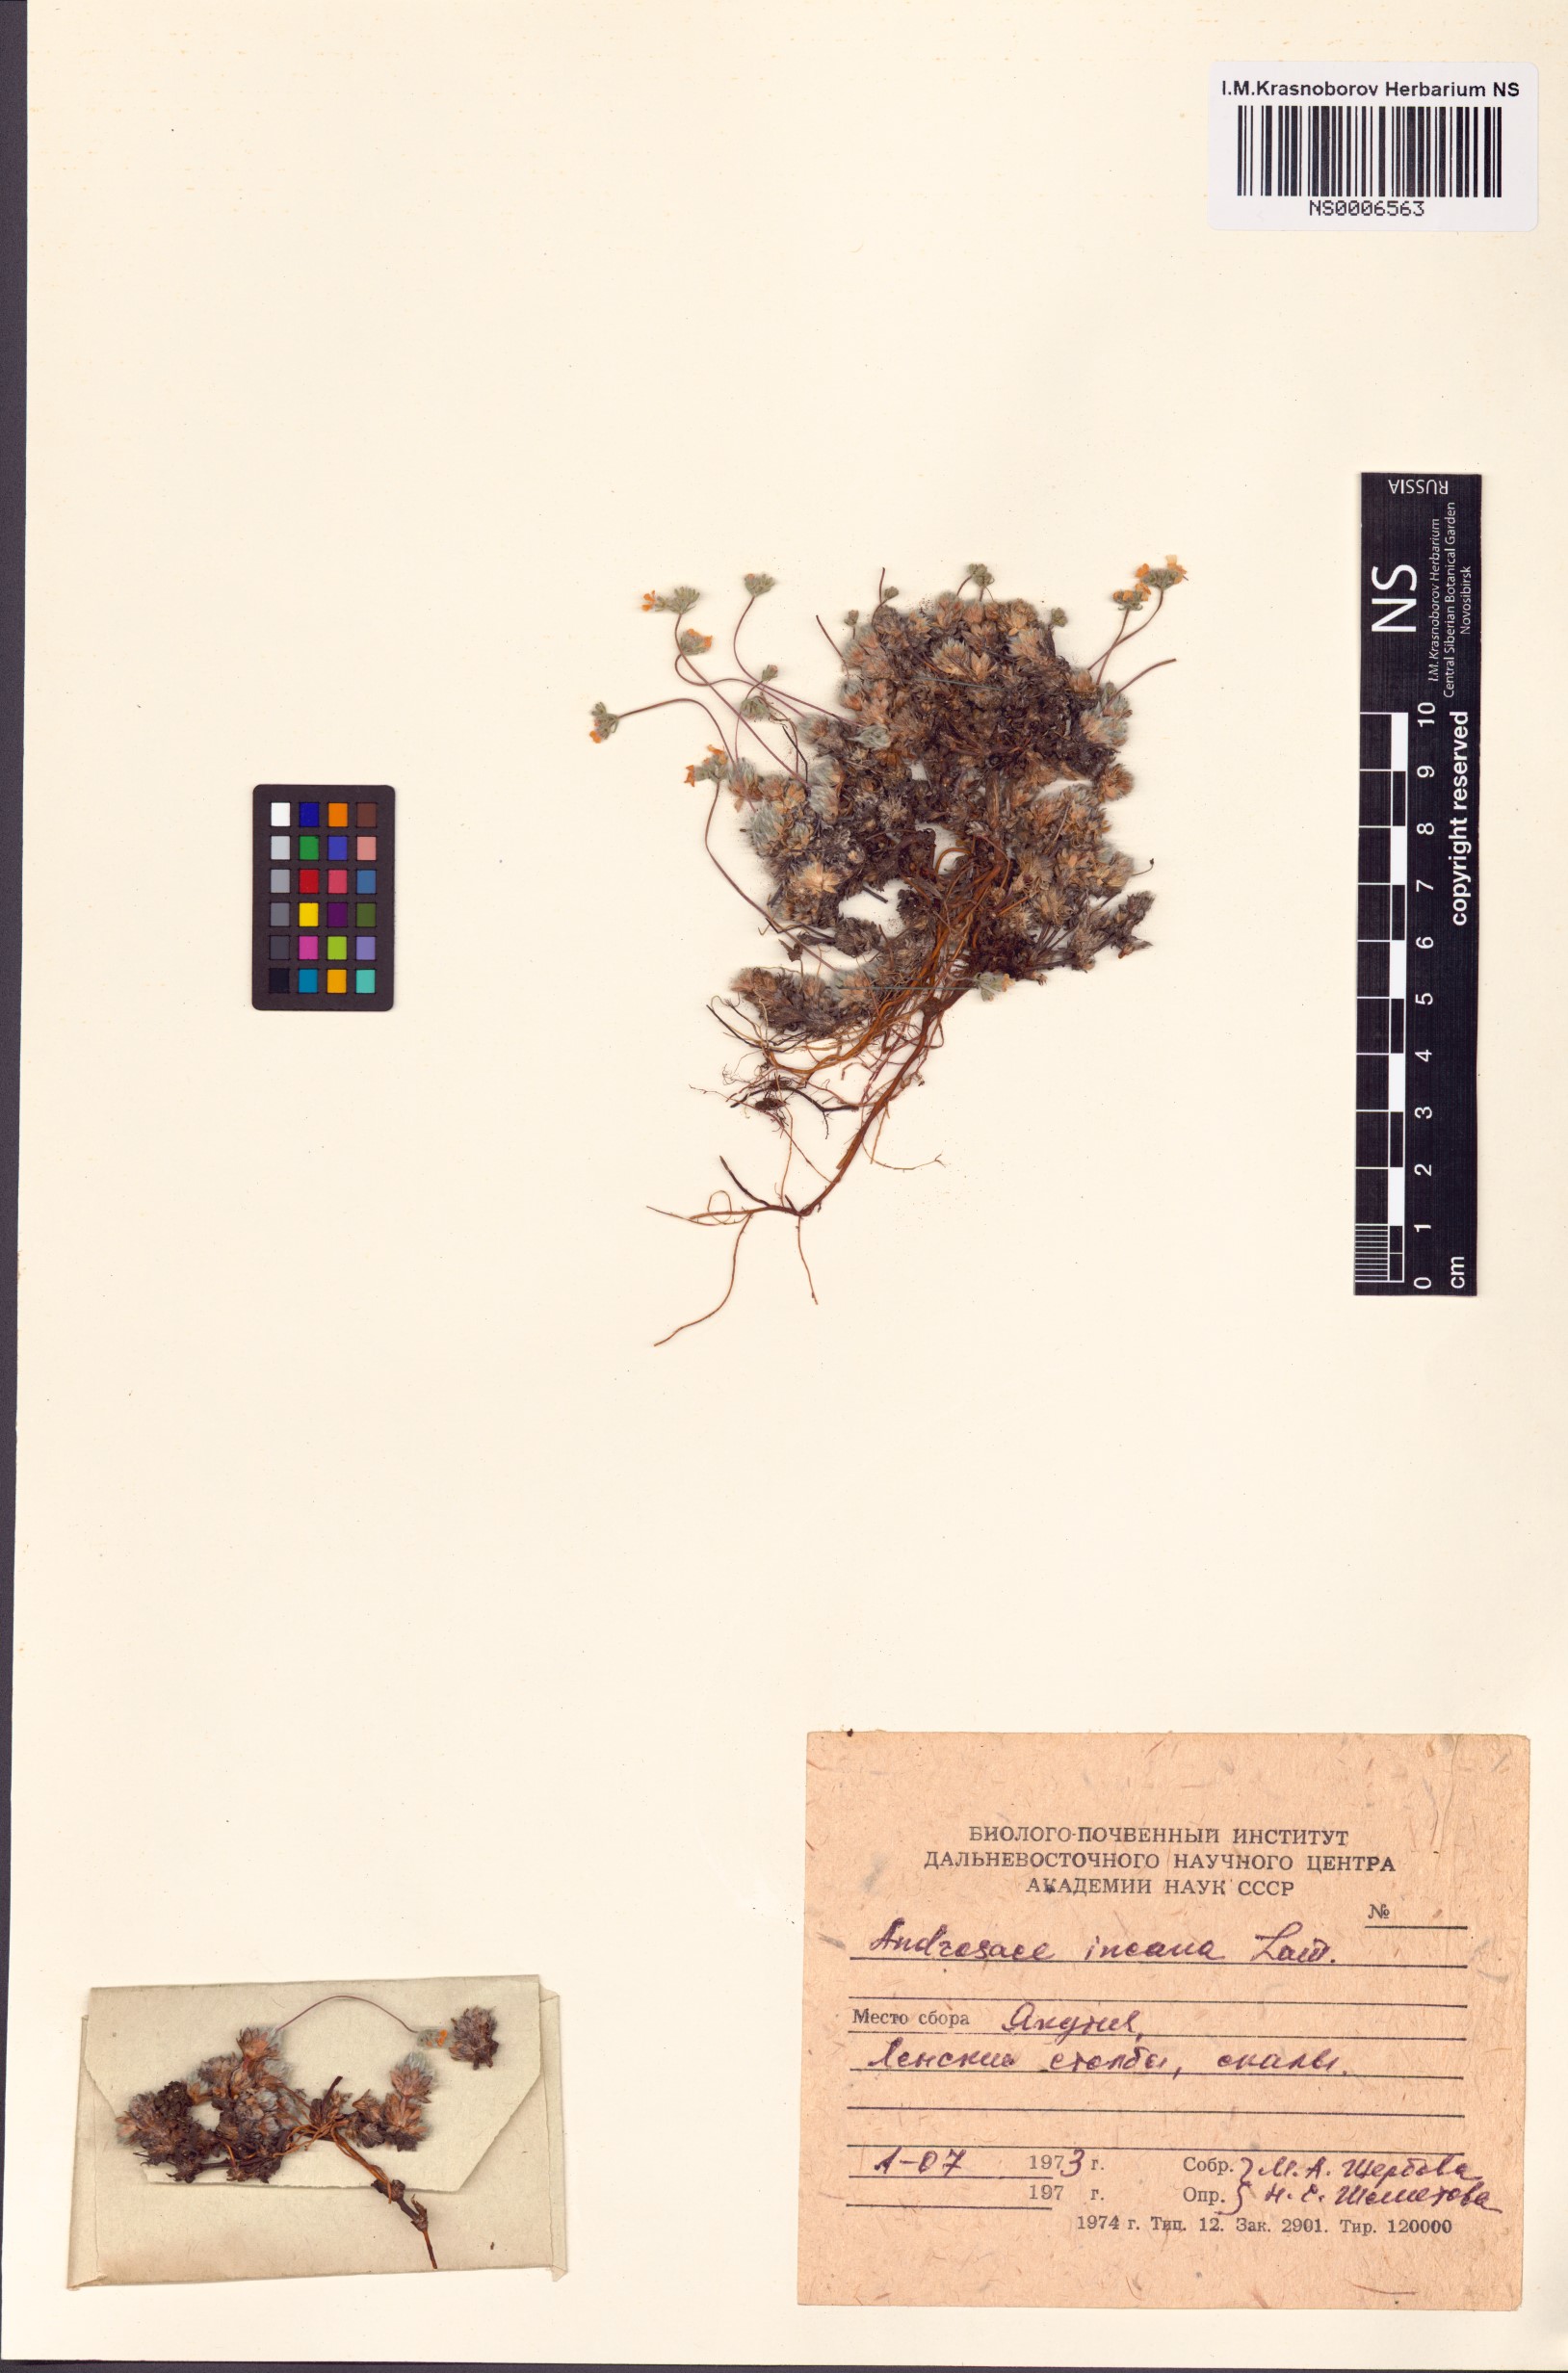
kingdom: Plantae
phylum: Tracheophyta
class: Magnoliopsida
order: Ericales
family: Primulaceae
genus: Androsace
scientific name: Androsace incana
